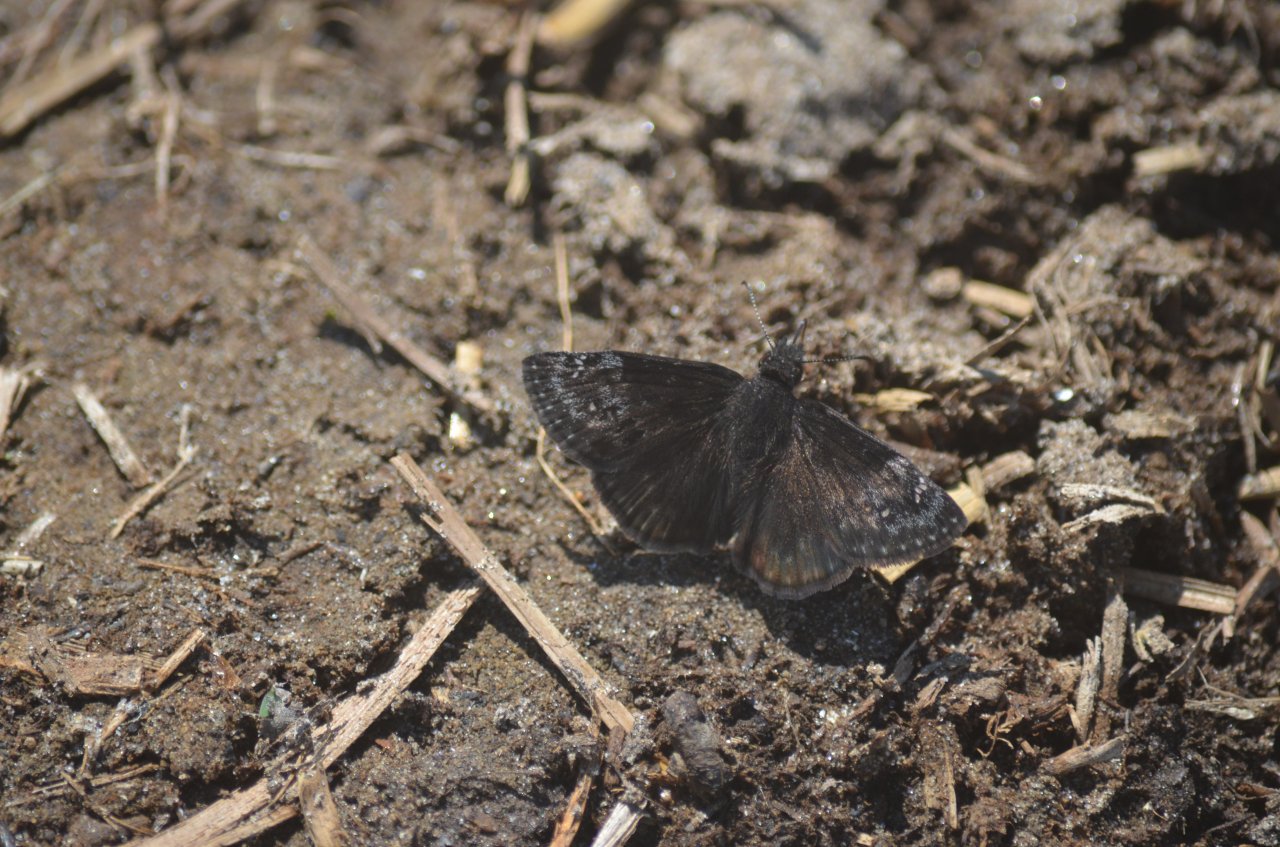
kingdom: Animalia
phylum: Arthropoda
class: Insecta
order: Lepidoptera
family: Hesperiidae
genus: Gesta
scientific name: Gesta
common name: Wild Indigo Duskywing
